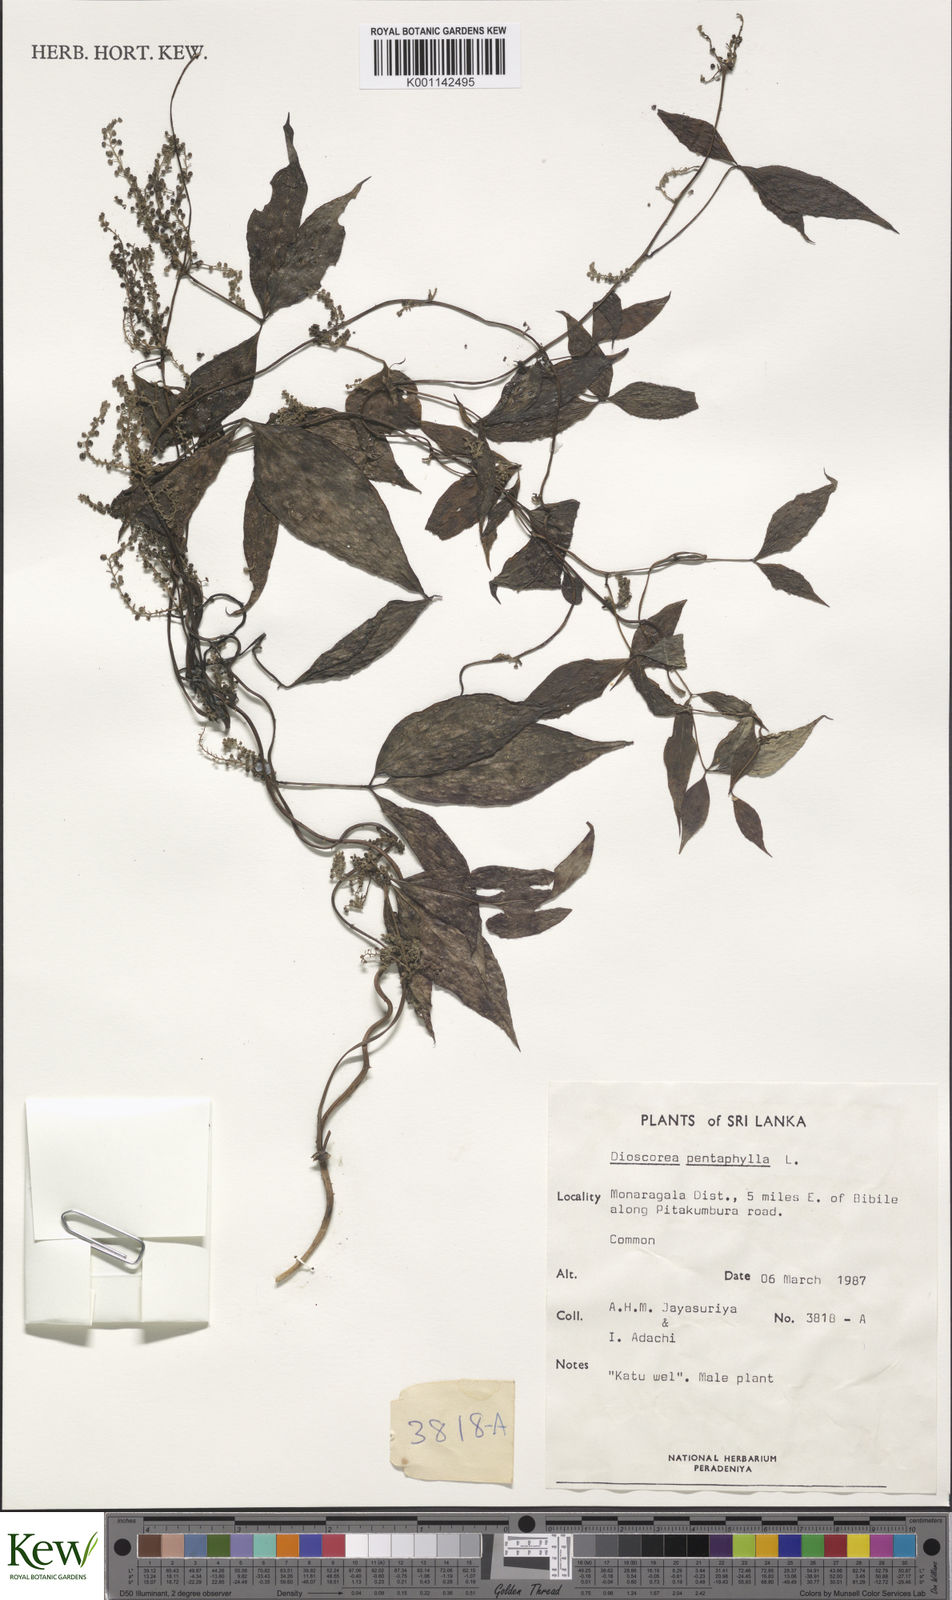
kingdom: Plantae
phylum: Tracheophyta
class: Liliopsida
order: Dioscoreales
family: Dioscoreaceae
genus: Dioscorea
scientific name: Dioscorea pentaphylla
